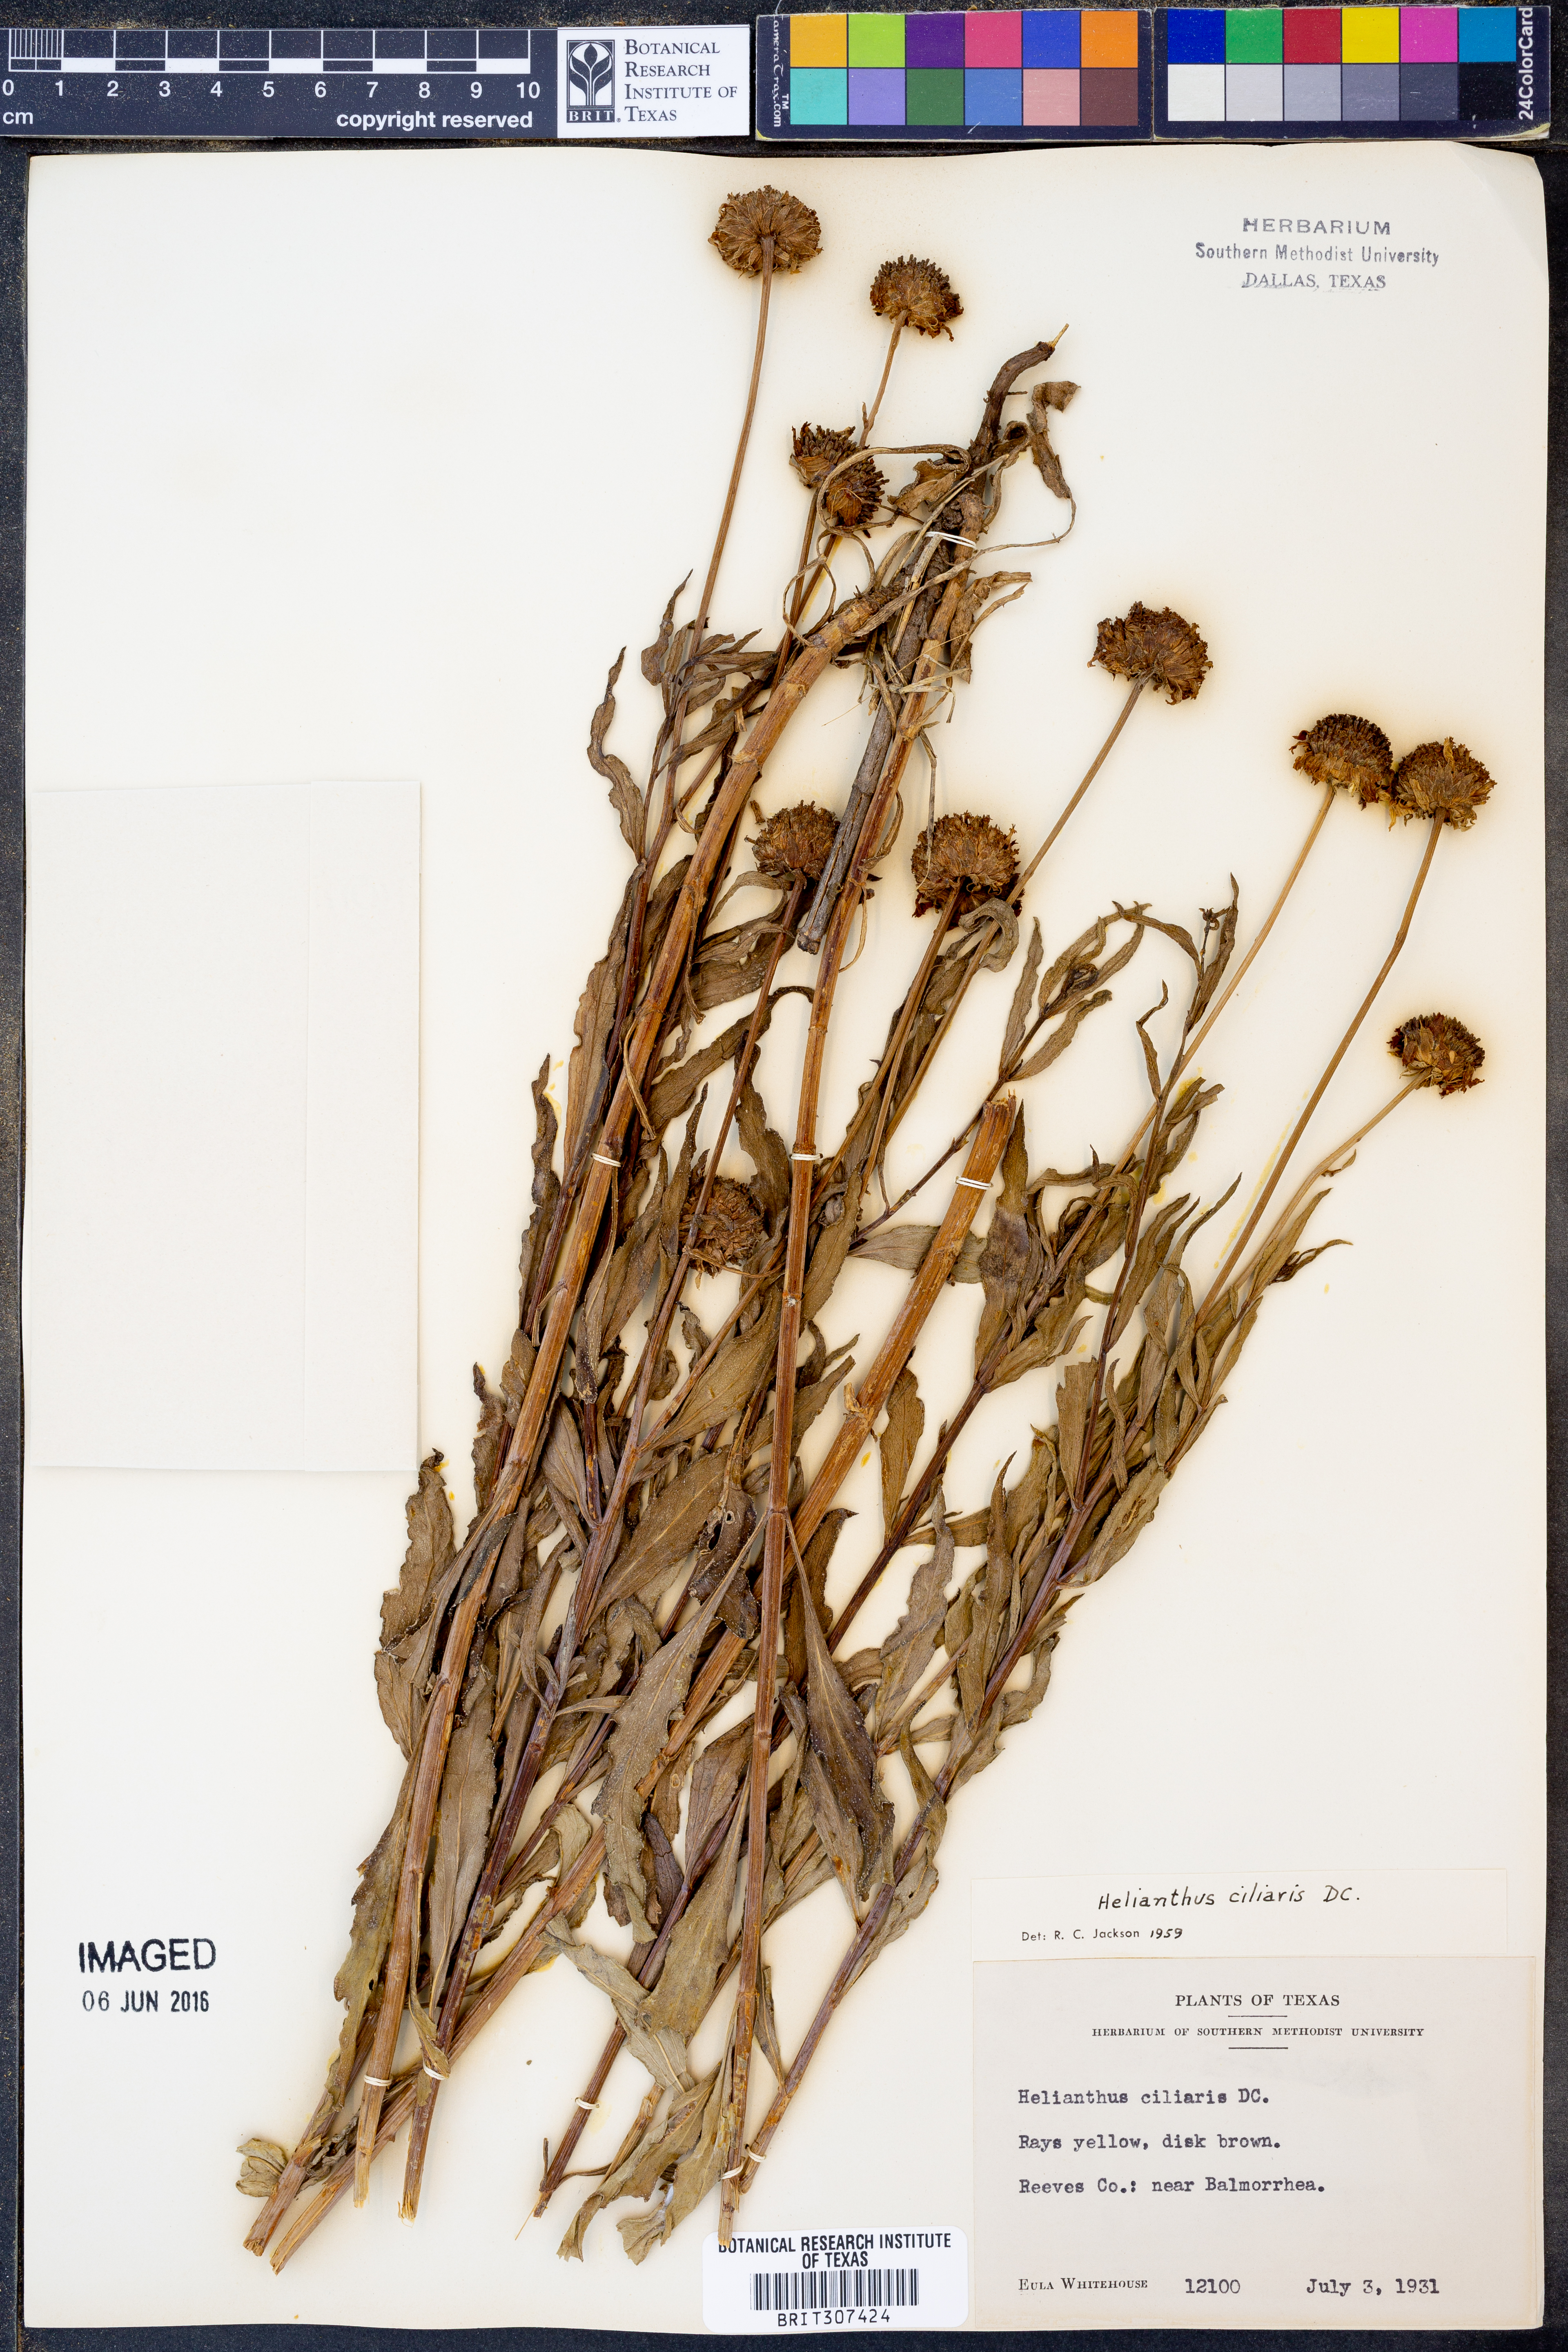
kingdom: Plantae
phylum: Tracheophyta
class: Magnoliopsida
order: Asterales
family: Asteraceae
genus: Helianthus
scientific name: Helianthus ciliaris
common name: Texas blueweed
